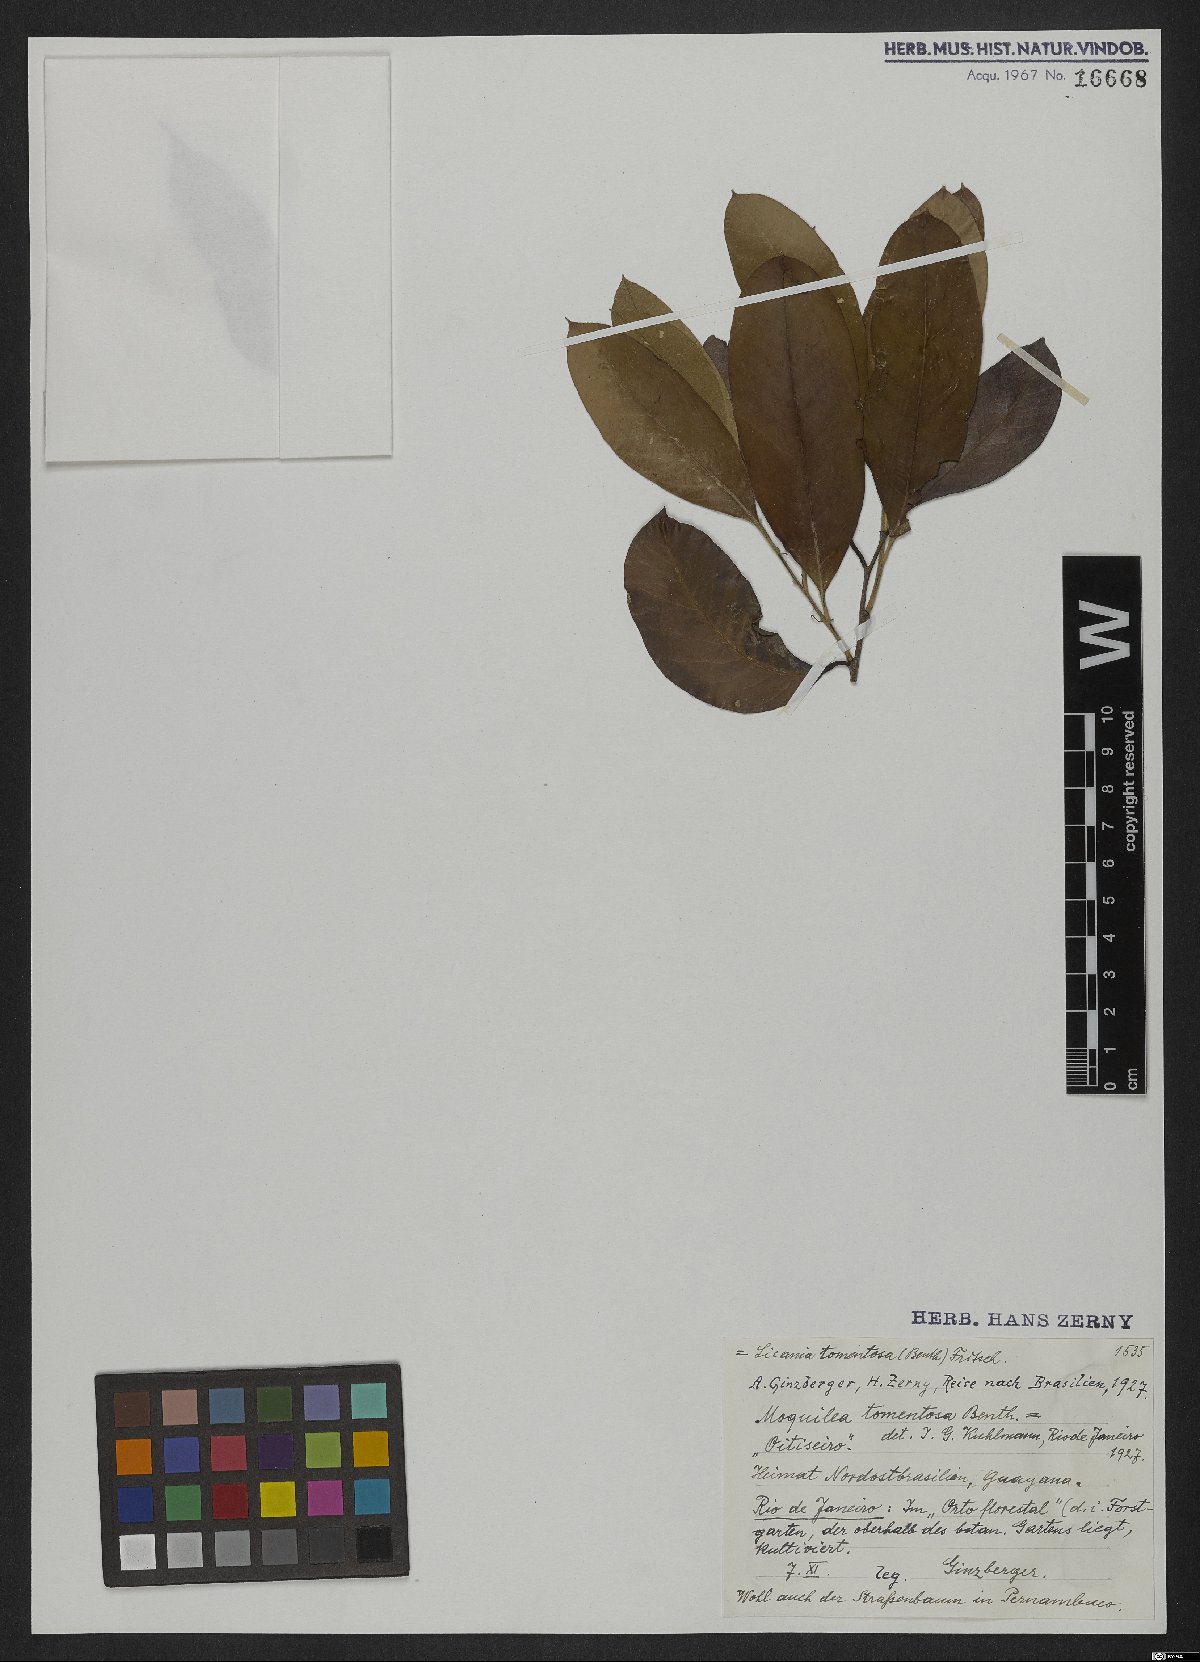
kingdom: Plantae
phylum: Tracheophyta
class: Magnoliopsida
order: Malpighiales
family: Chrysobalanaceae
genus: Moquilea
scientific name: Moquilea tomentosa
